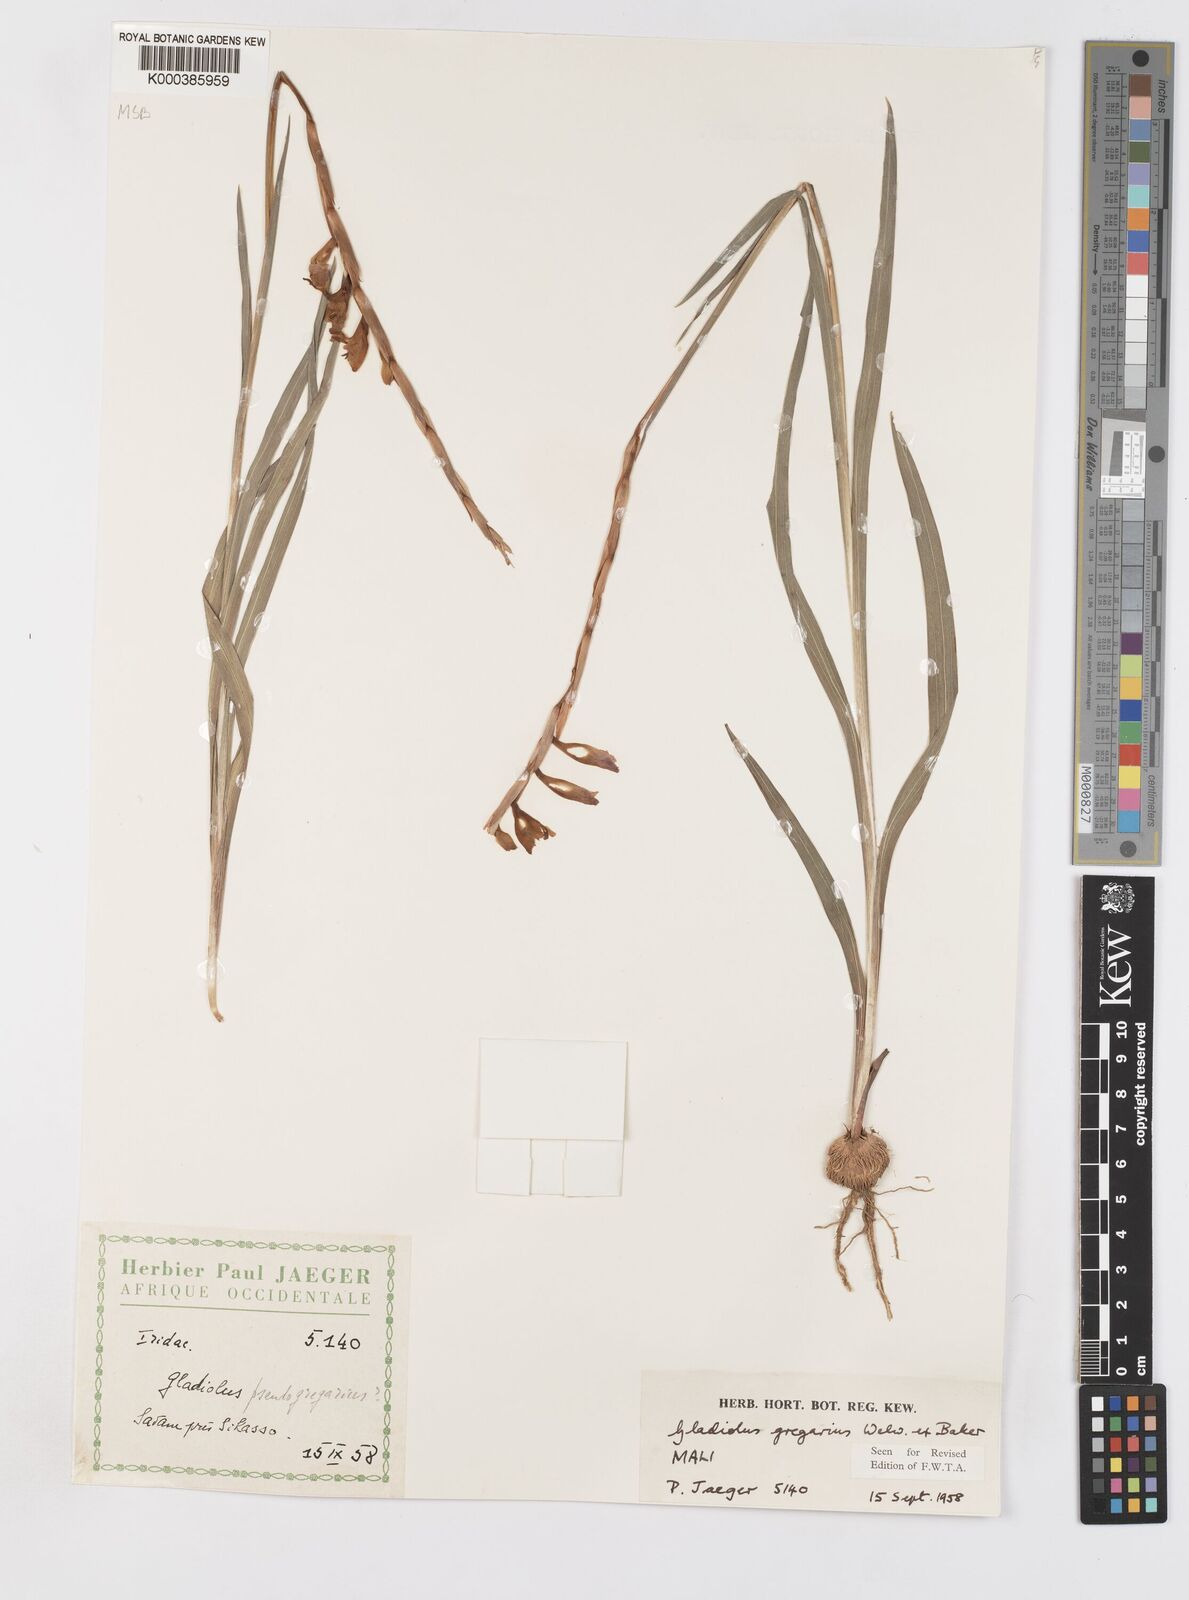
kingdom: Plantae
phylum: Tracheophyta
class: Liliopsida
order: Asparagales
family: Iridaceae
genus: Gladiolus
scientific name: Gladiolus gregarius
